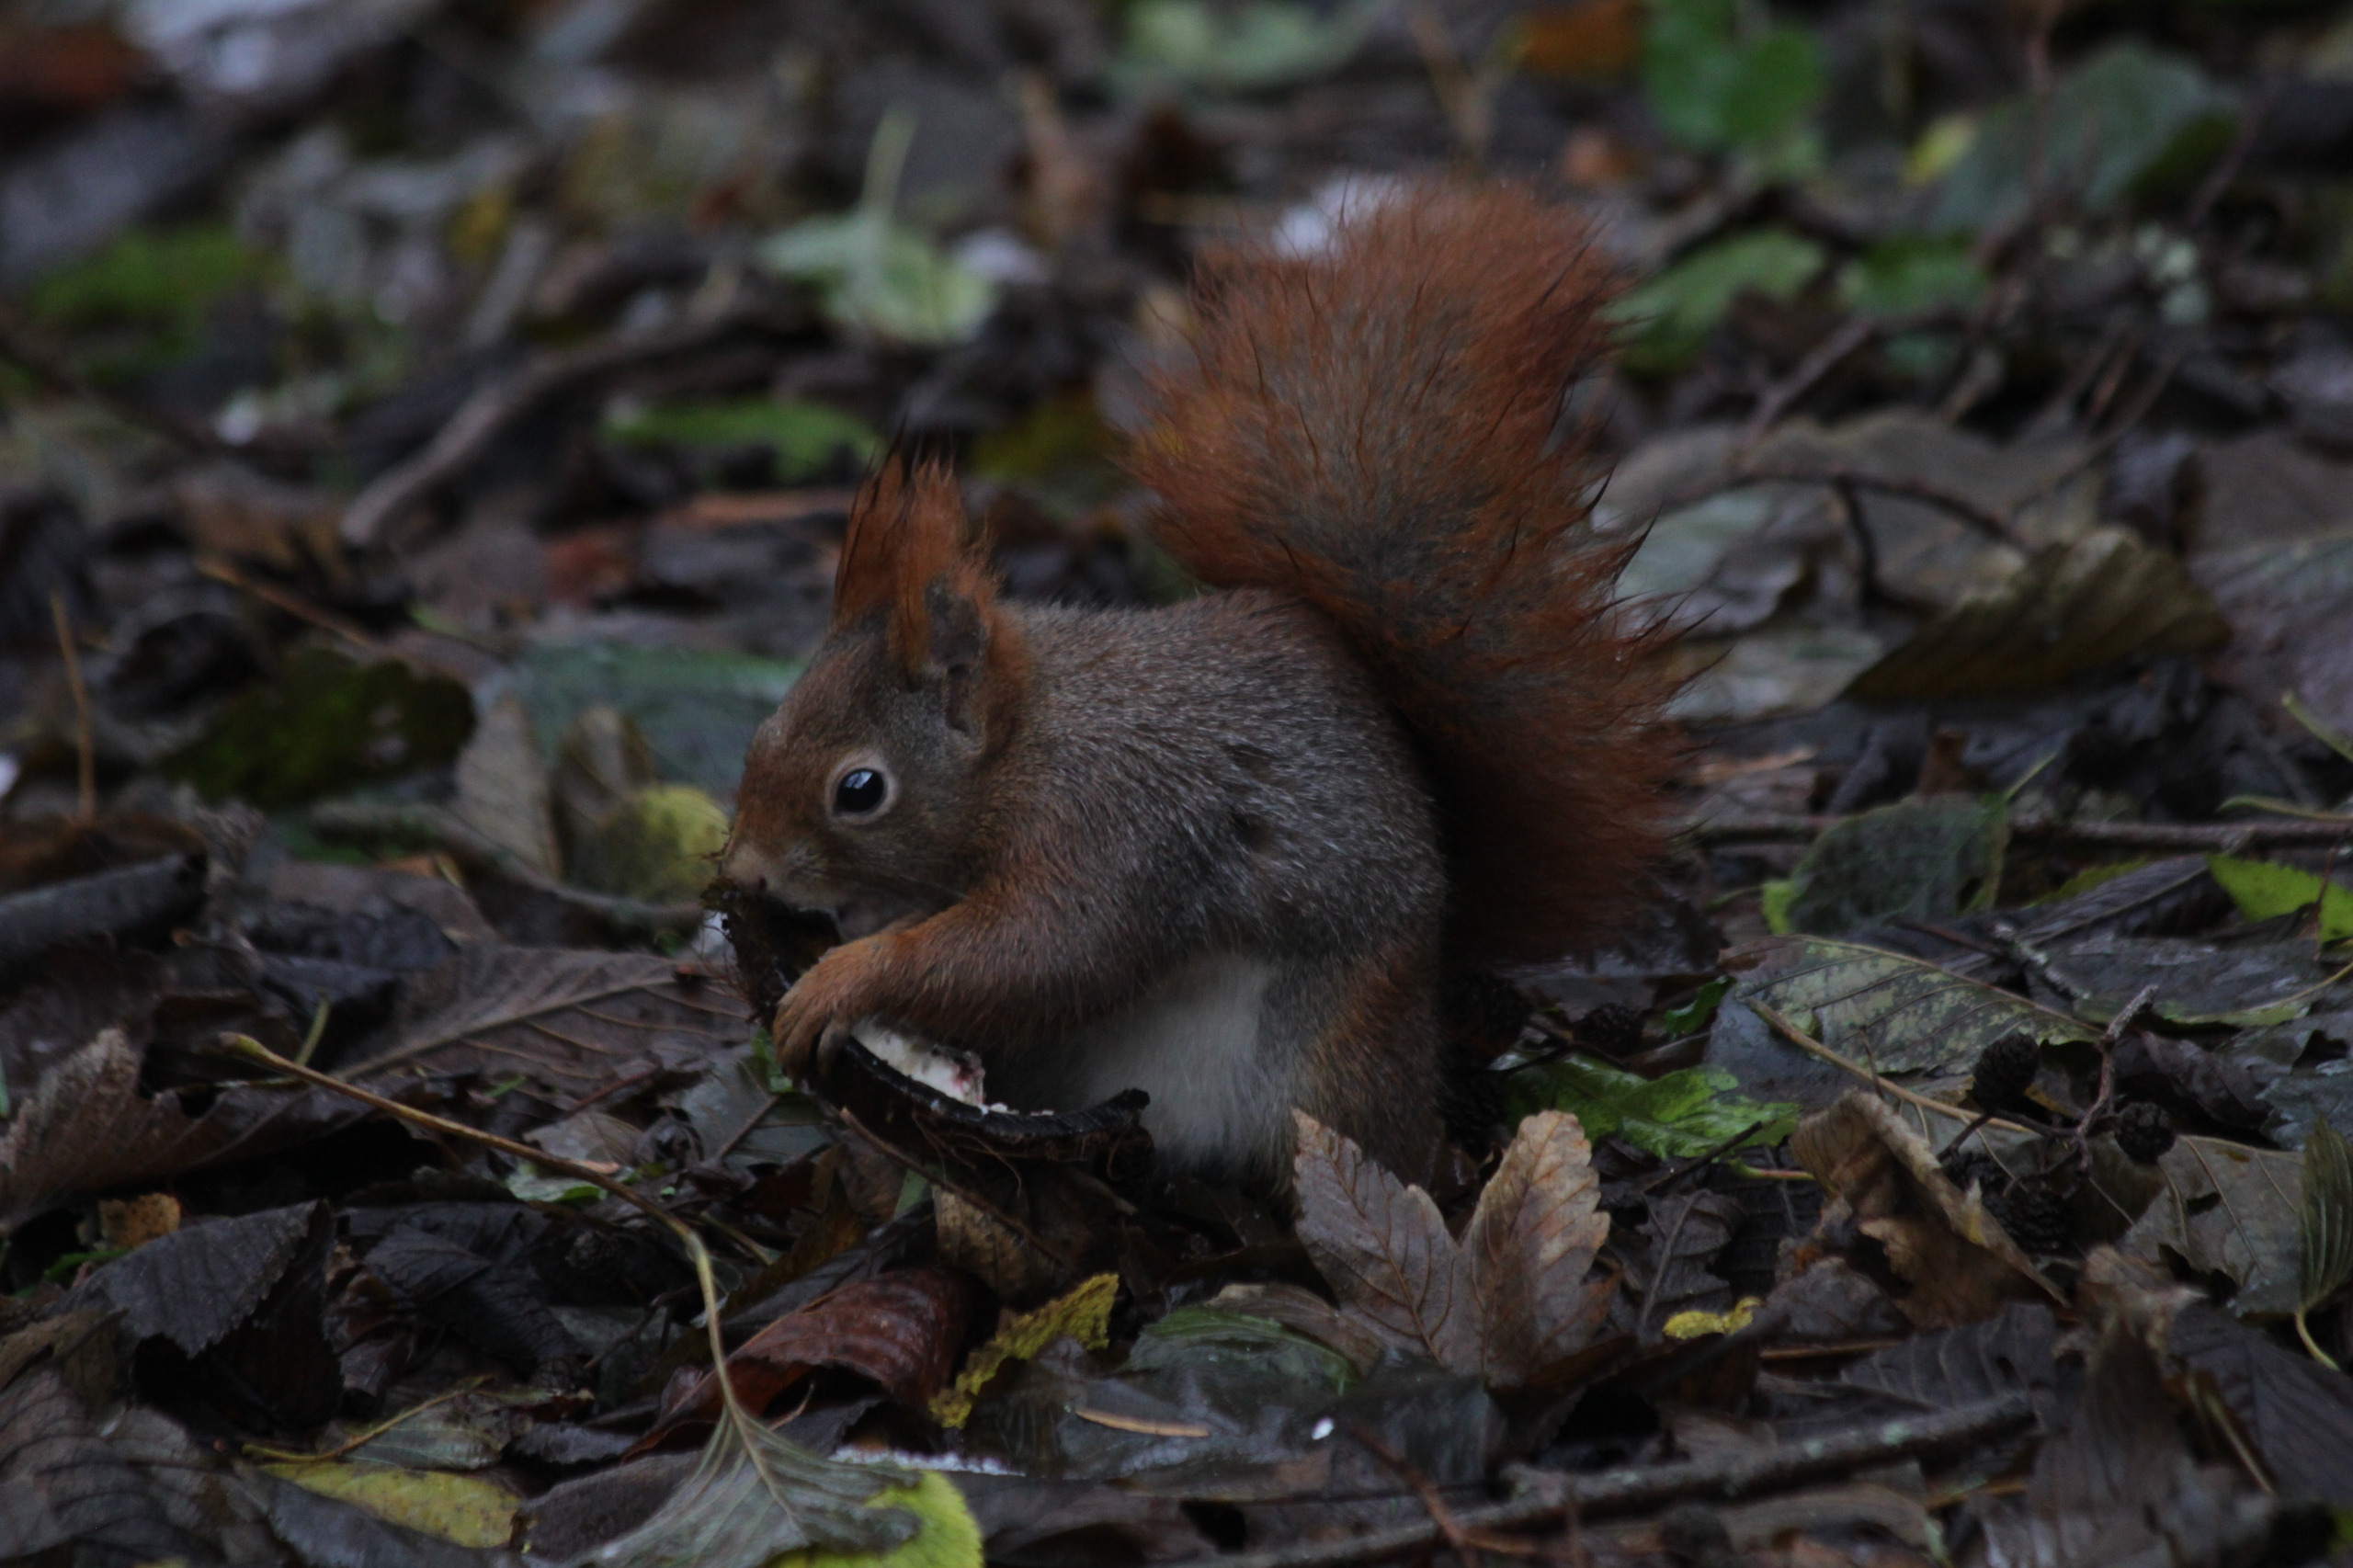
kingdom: Animalia
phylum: Chordata
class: Mammalia
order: Rodentia
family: Sciuridae
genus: Sciurus
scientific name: Sciurus vulgaris
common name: Egern
